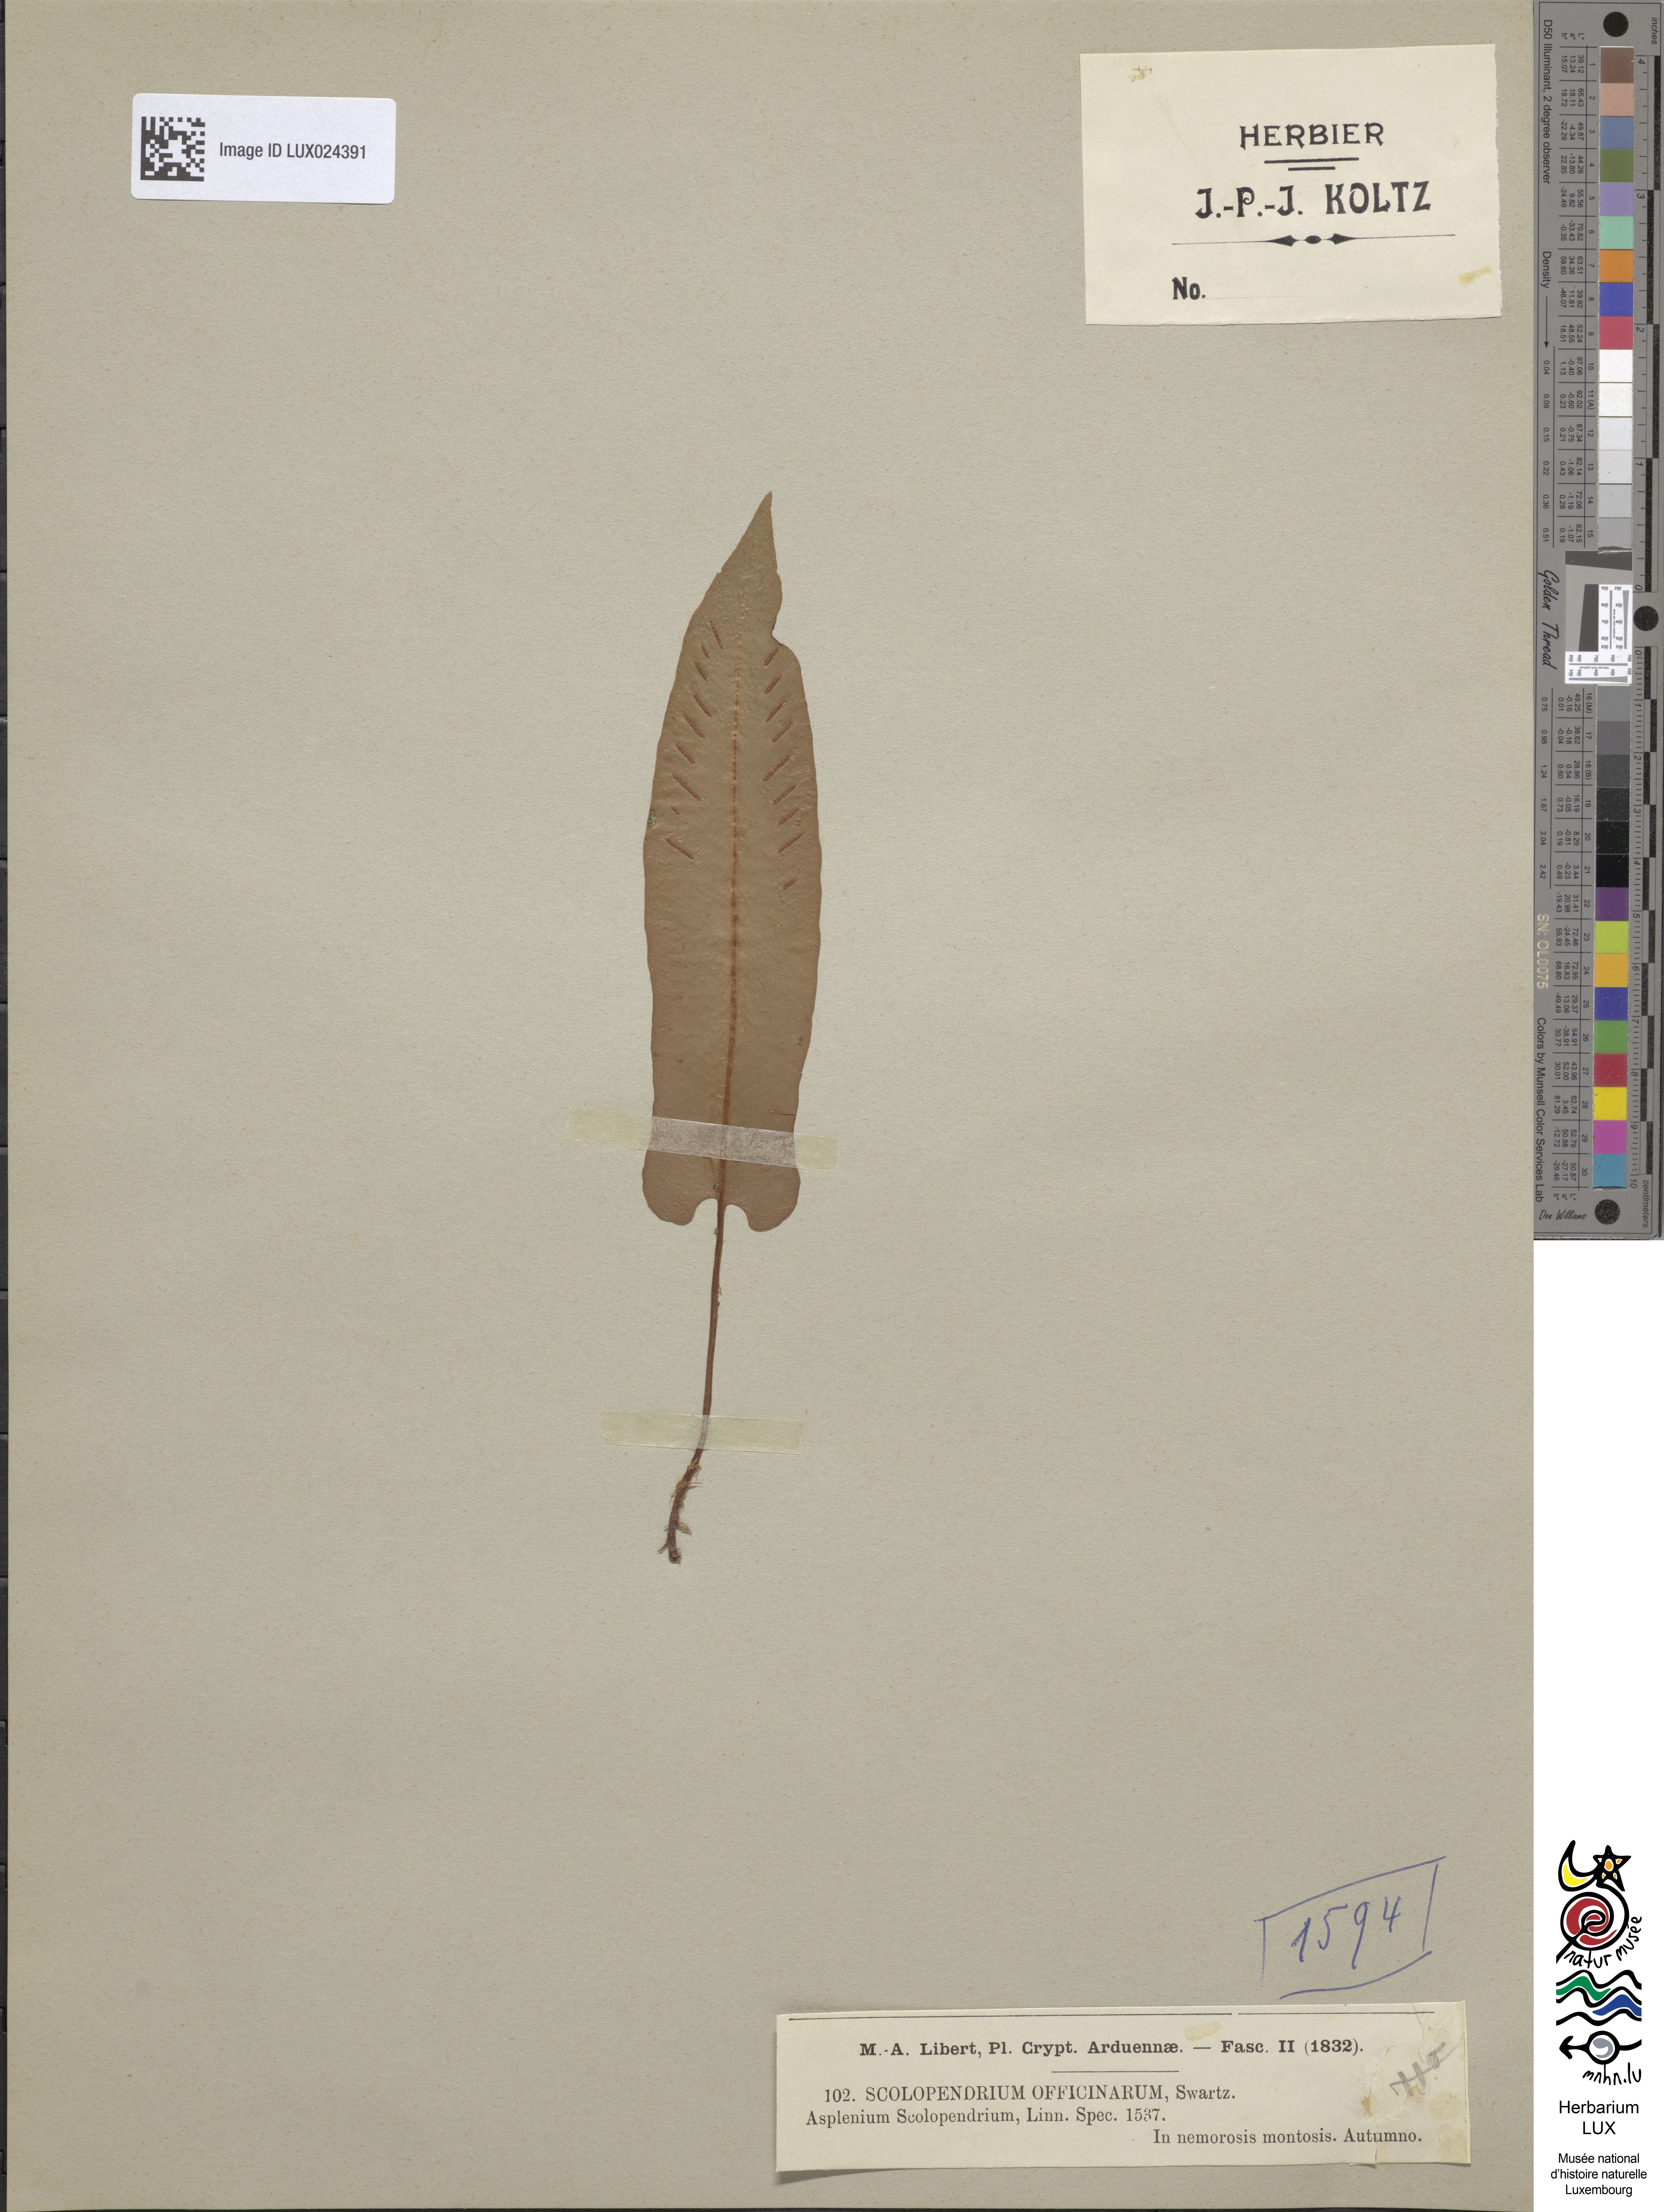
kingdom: Plantae
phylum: Tracheophyta
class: Polypodiopsida
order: Polypodiales
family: Aspleniaceae
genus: Asplenium
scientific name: Asplenium scolopendrium
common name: Hart's-tongue fern
